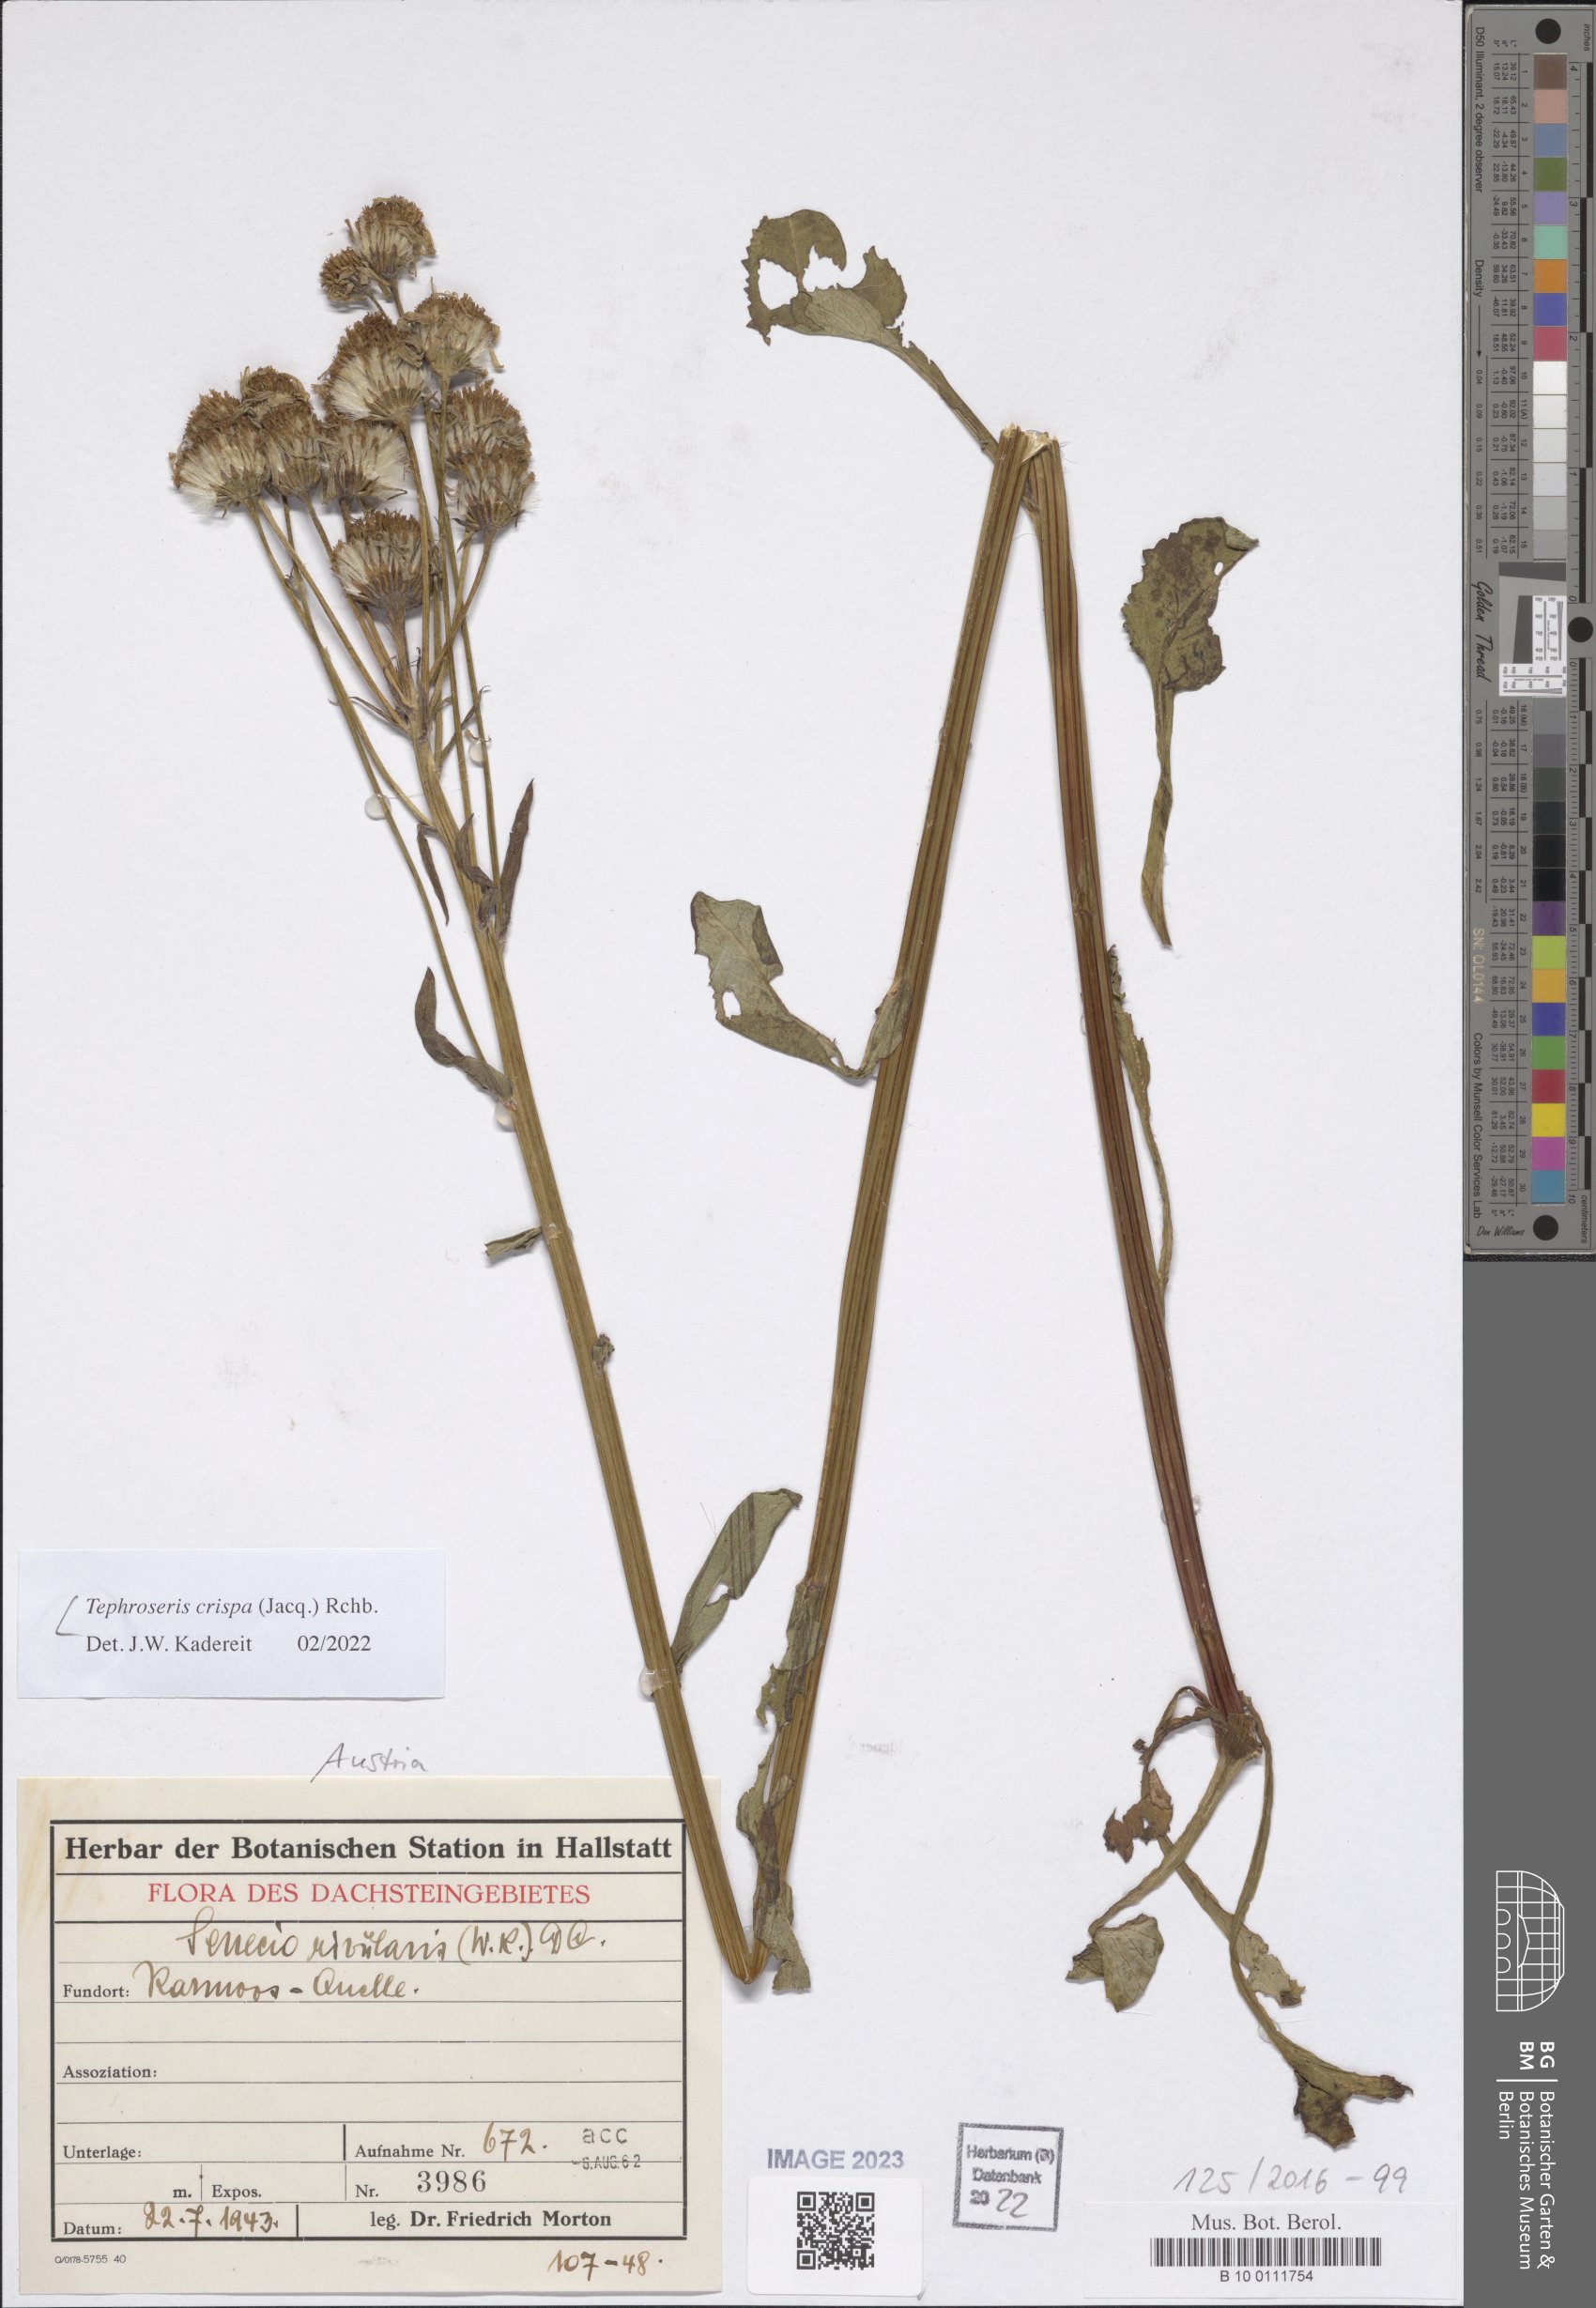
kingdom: Plantae
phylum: Tracheophyta
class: Magnoliopsida
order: Asterales
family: Asteraceae
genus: Tephroseris
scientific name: Tephroseris crispa
